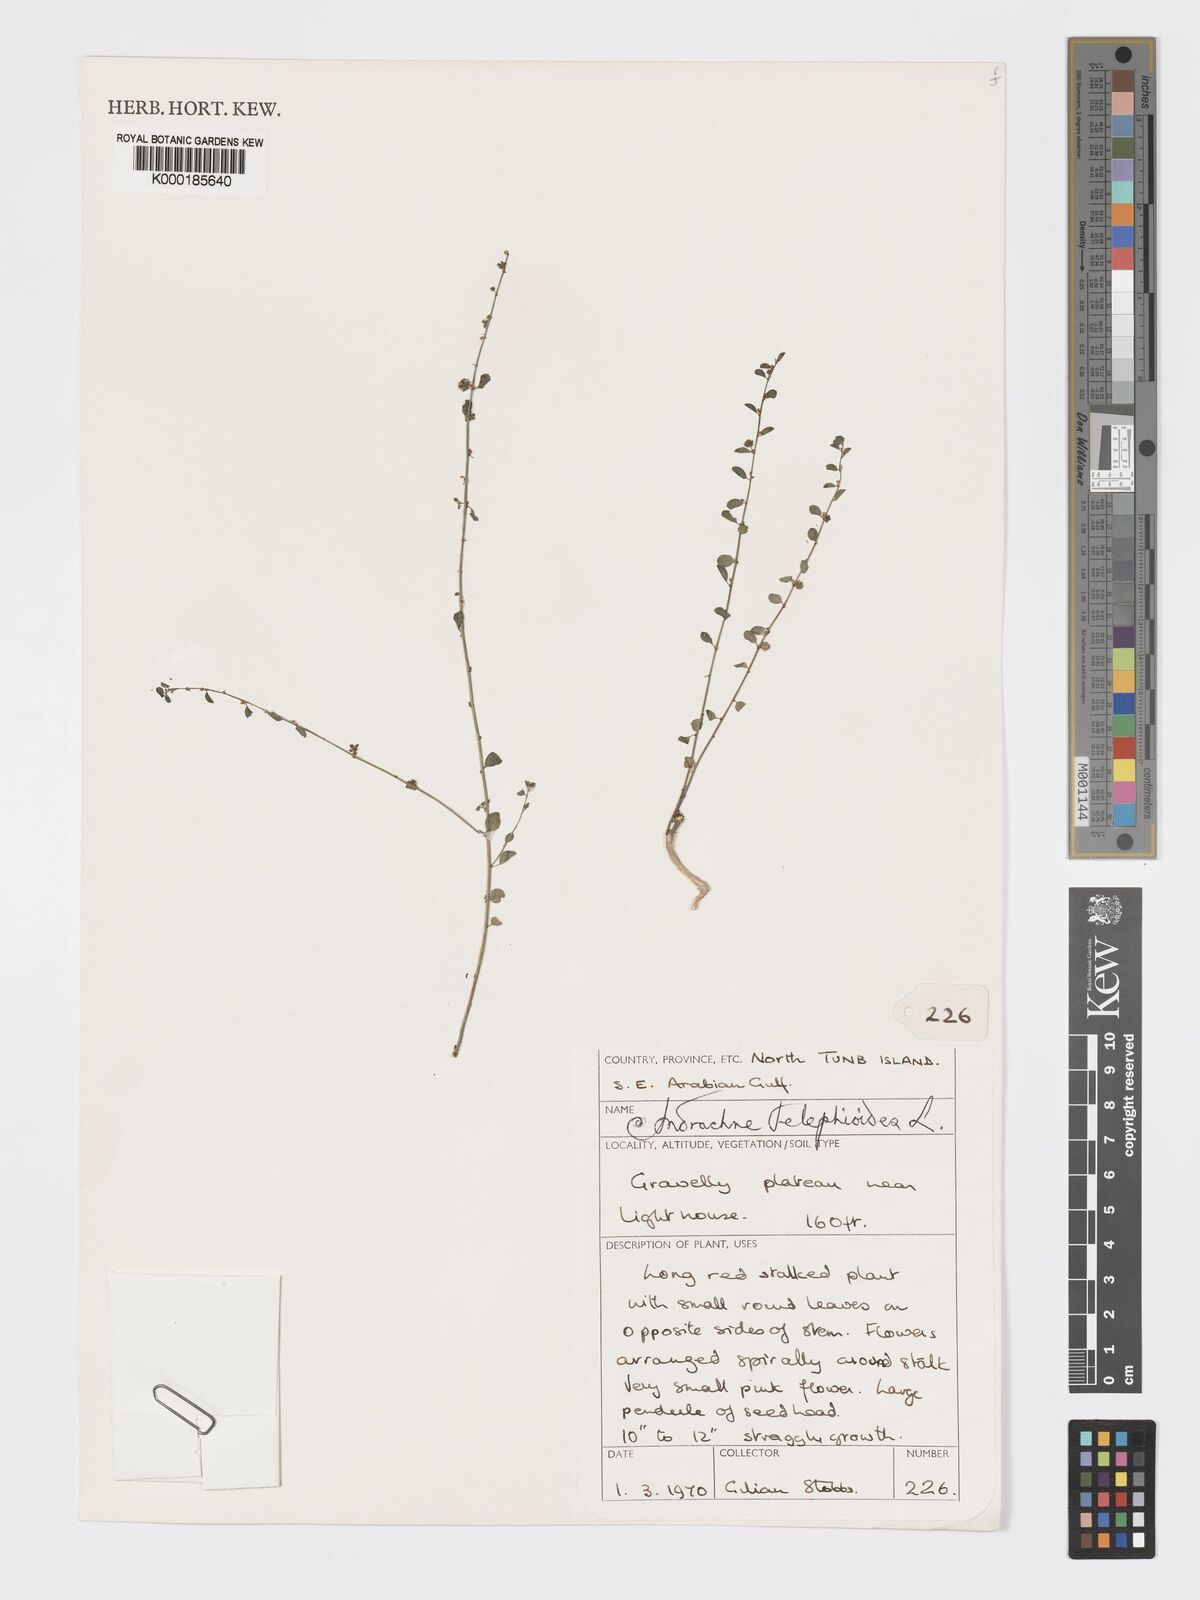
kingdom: Plantae
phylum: Tracheophyta
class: Magnoliopsida
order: Malpighiales
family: Phyllanthaceae
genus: Andrachne
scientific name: Andrachne telephioides
